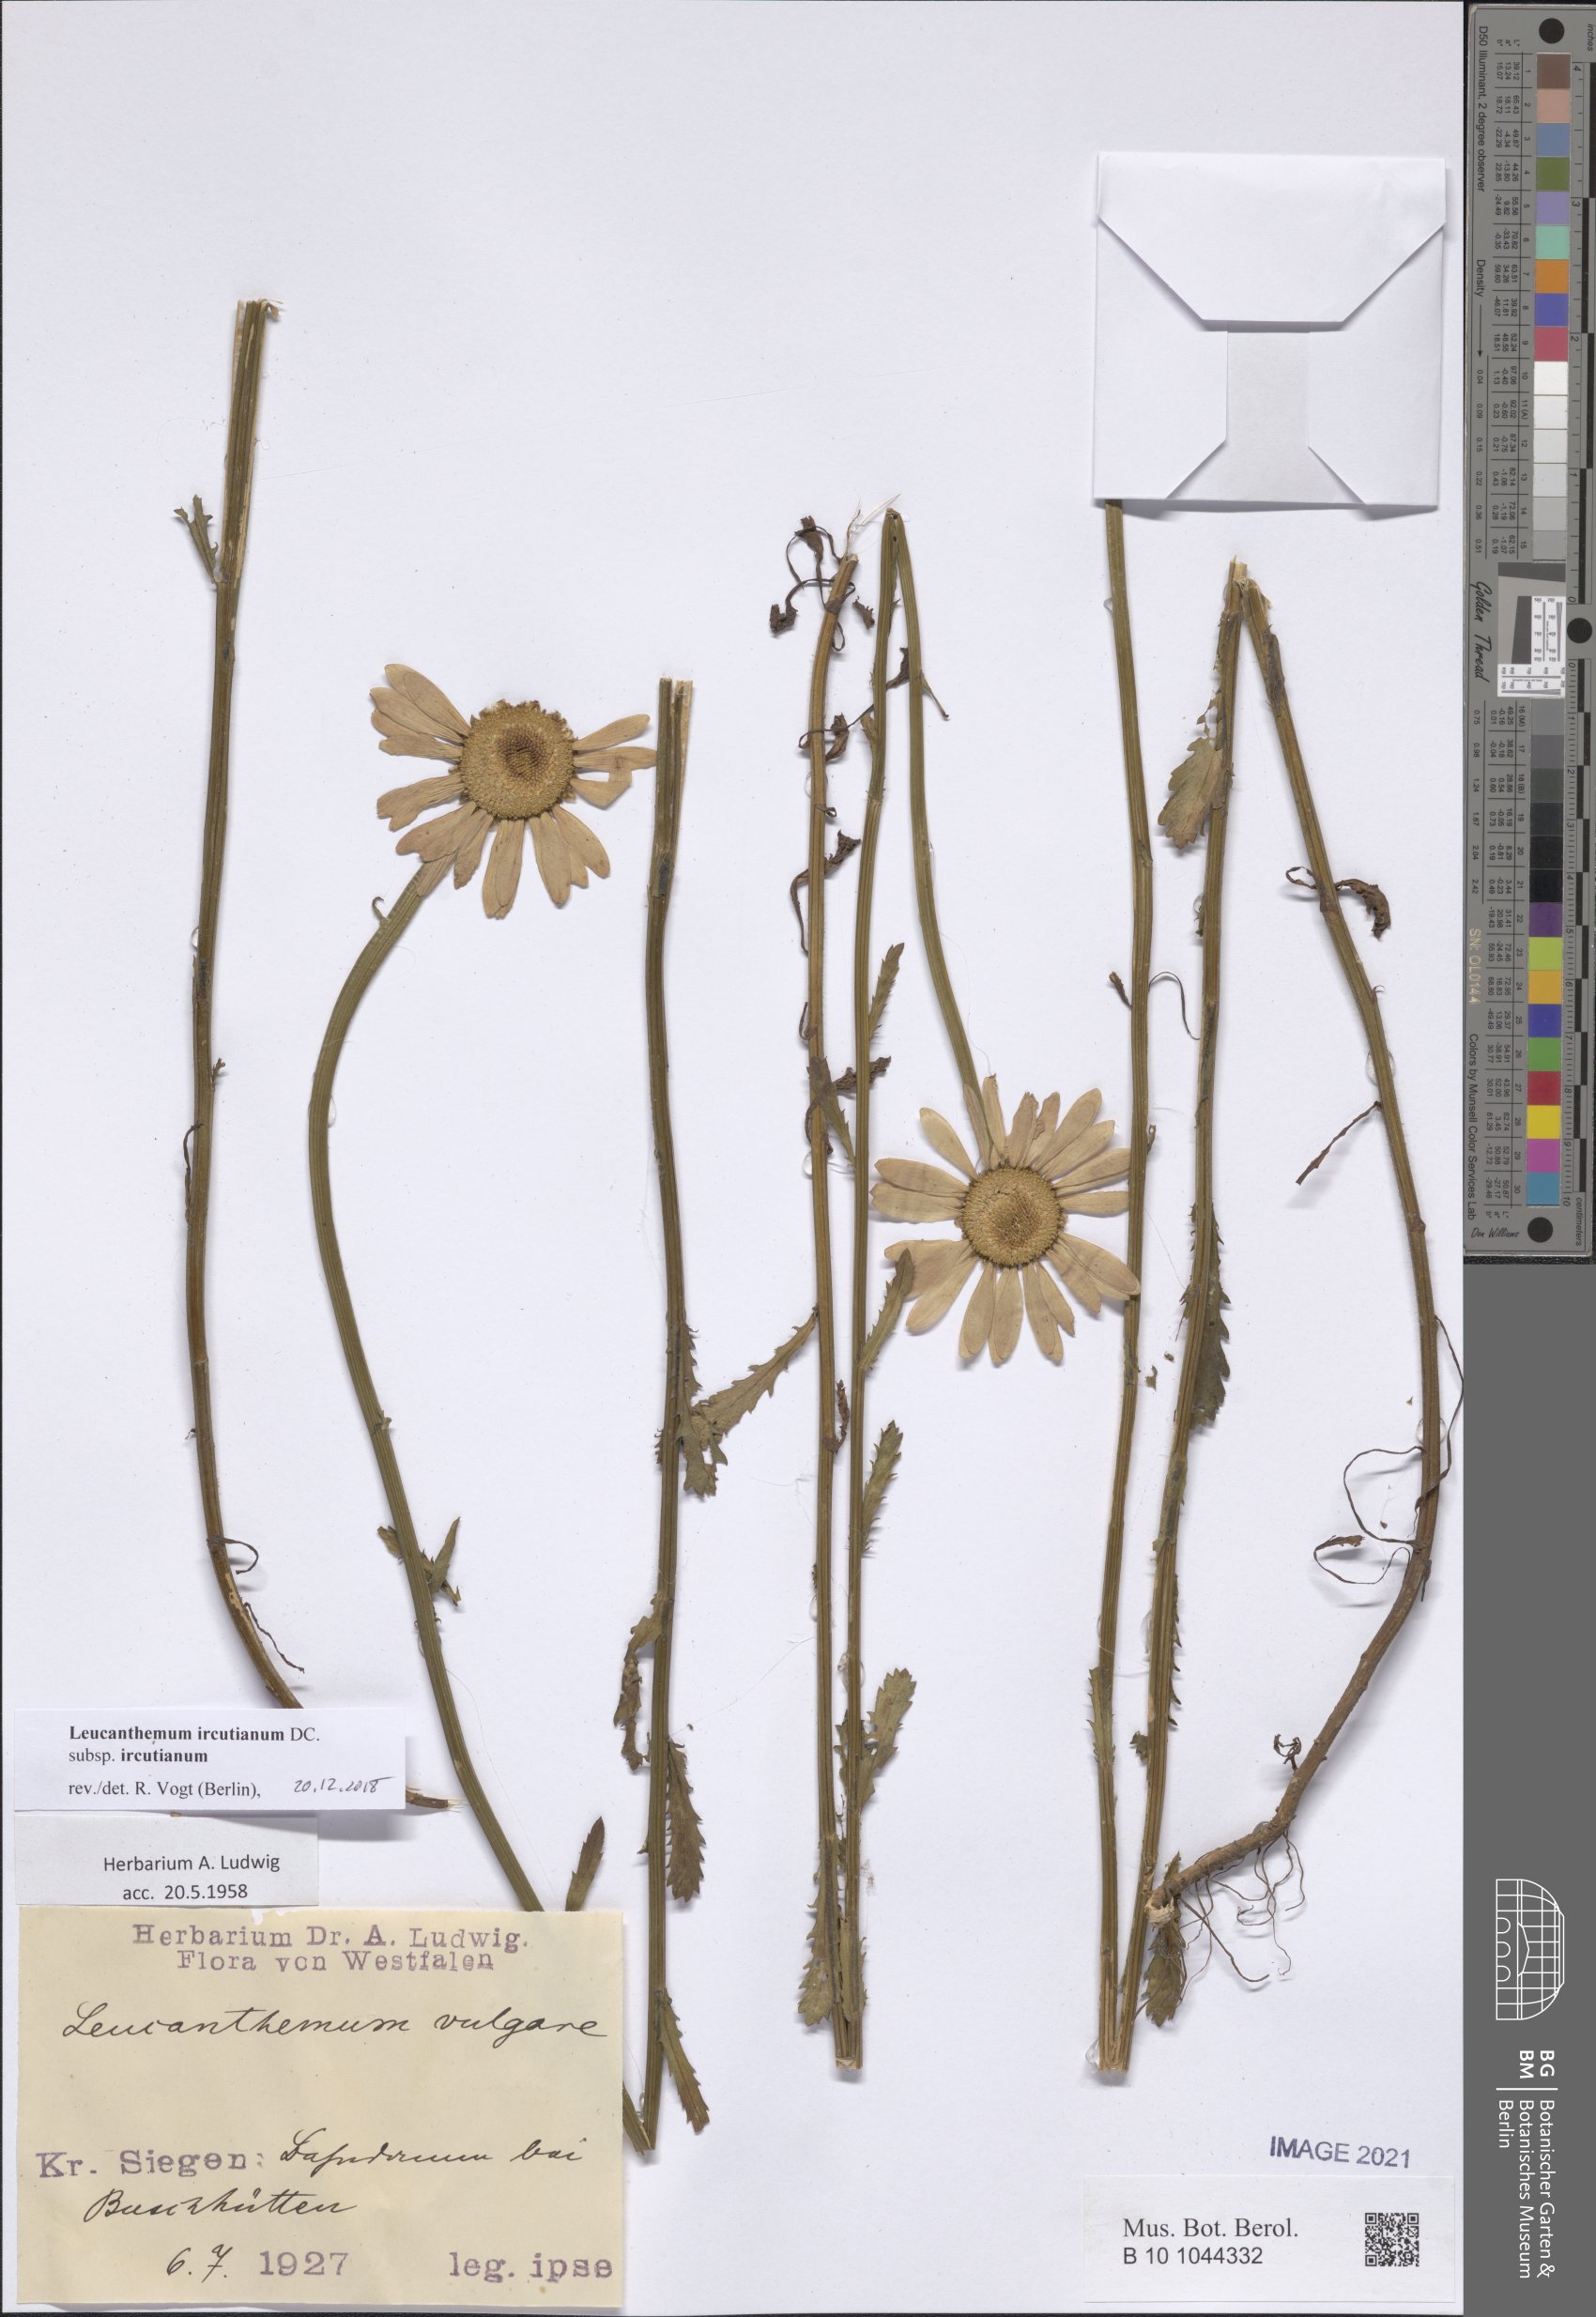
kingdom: Plantae
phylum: Tracheophyta
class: Magnoliopsida
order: Asterales
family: Asteraceae
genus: Leucanthemum
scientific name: Leucanthemum ircutianum
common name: Daisy
